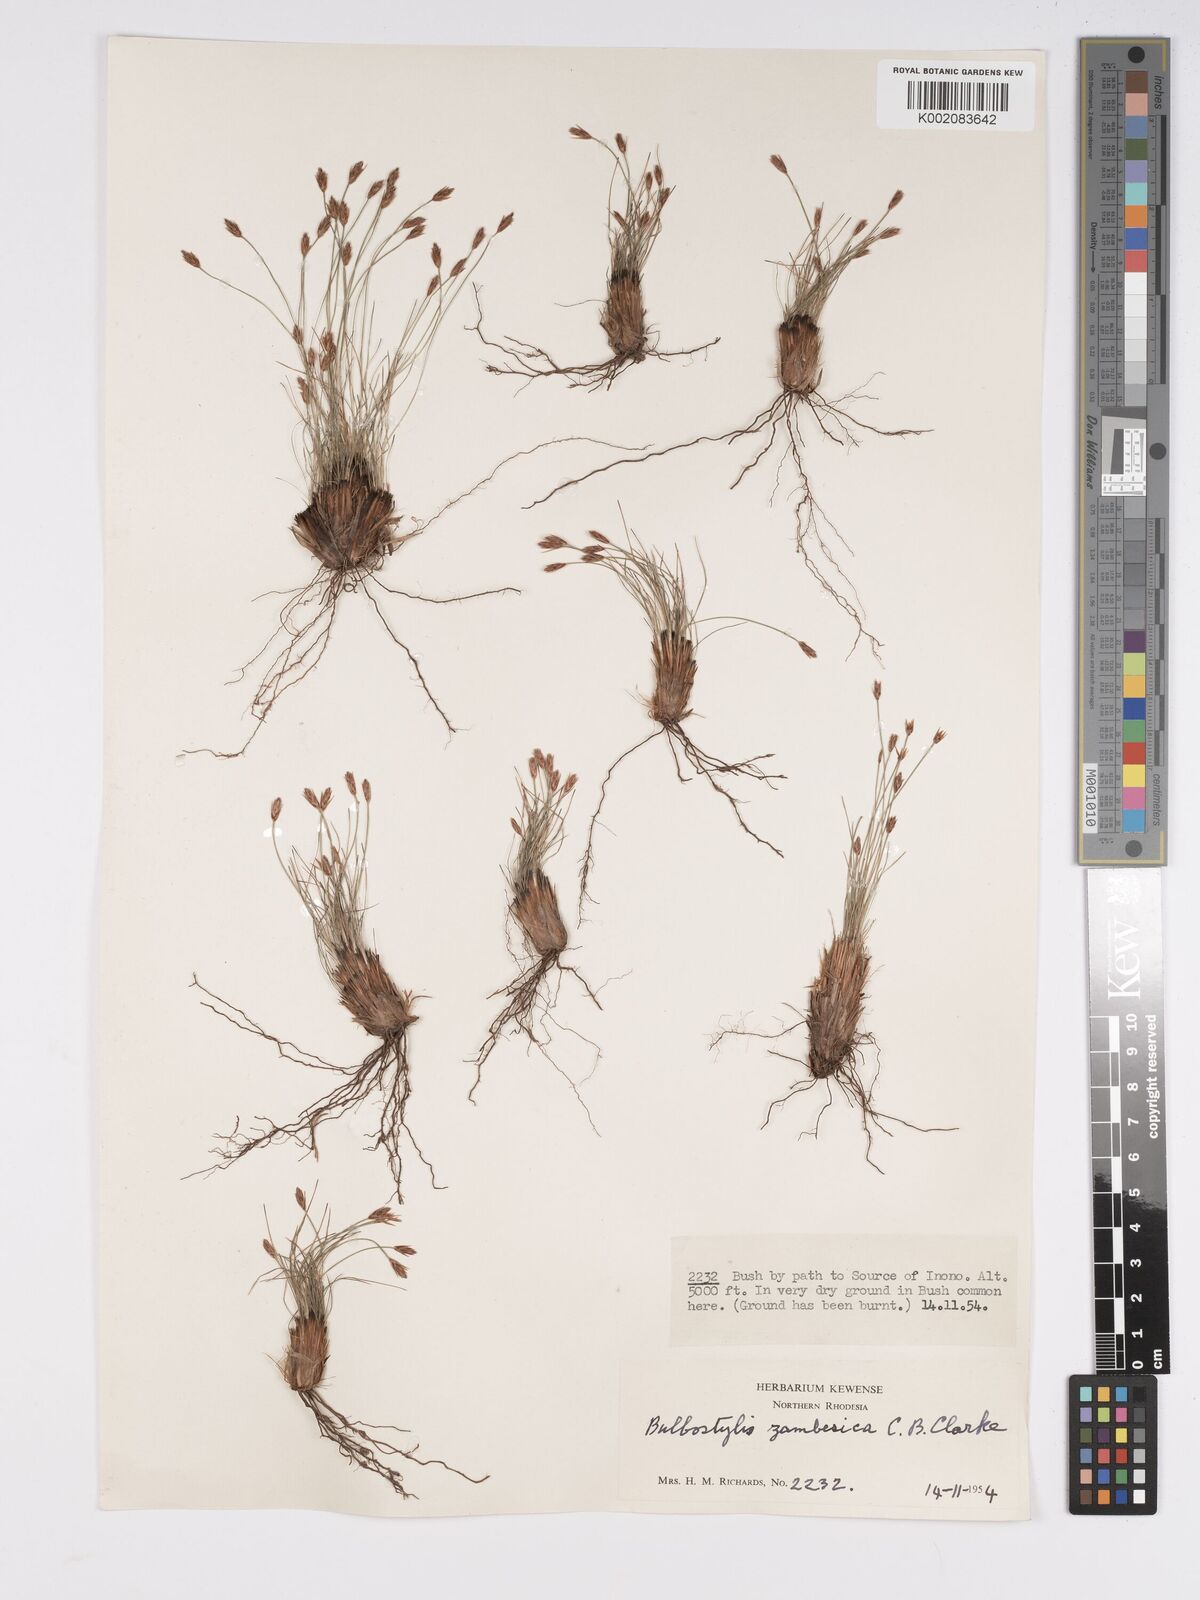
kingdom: Plantae
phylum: Tracheophyta
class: Liliopsida
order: Poales
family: Cyperaceae
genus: Bulbostylis
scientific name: Bulbostylis macra
